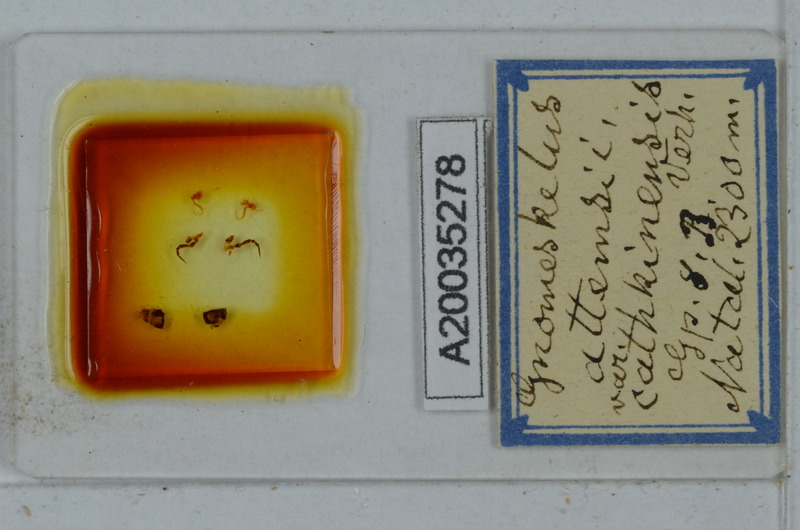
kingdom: Animalia
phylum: Arthropoda
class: Diplopoda
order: Polydesmida
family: Dalodesmidae
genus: Gnomeskelus
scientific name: Gnomeskelus attemsii
